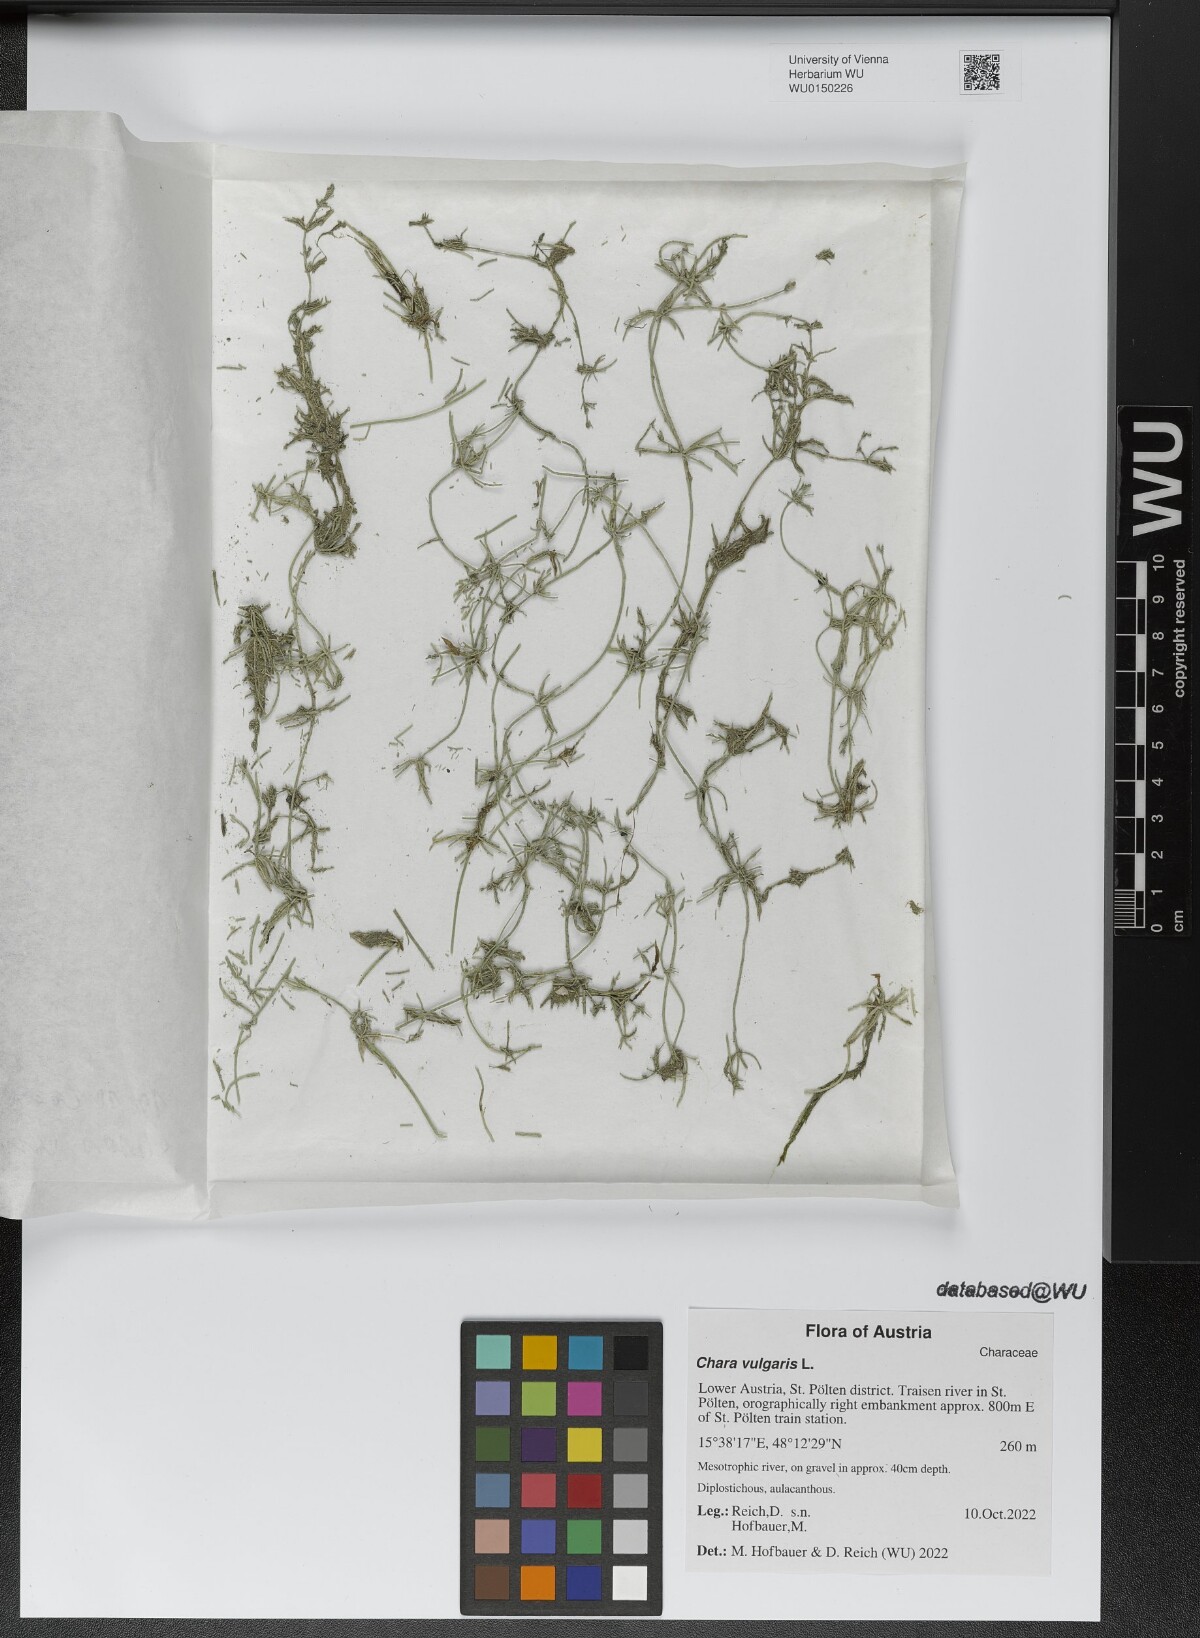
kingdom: Plantae
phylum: Charophyta
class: Charophyceae
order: Charales
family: Characeae
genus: Chara
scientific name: Chara vulgaris
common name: Common stonewort
